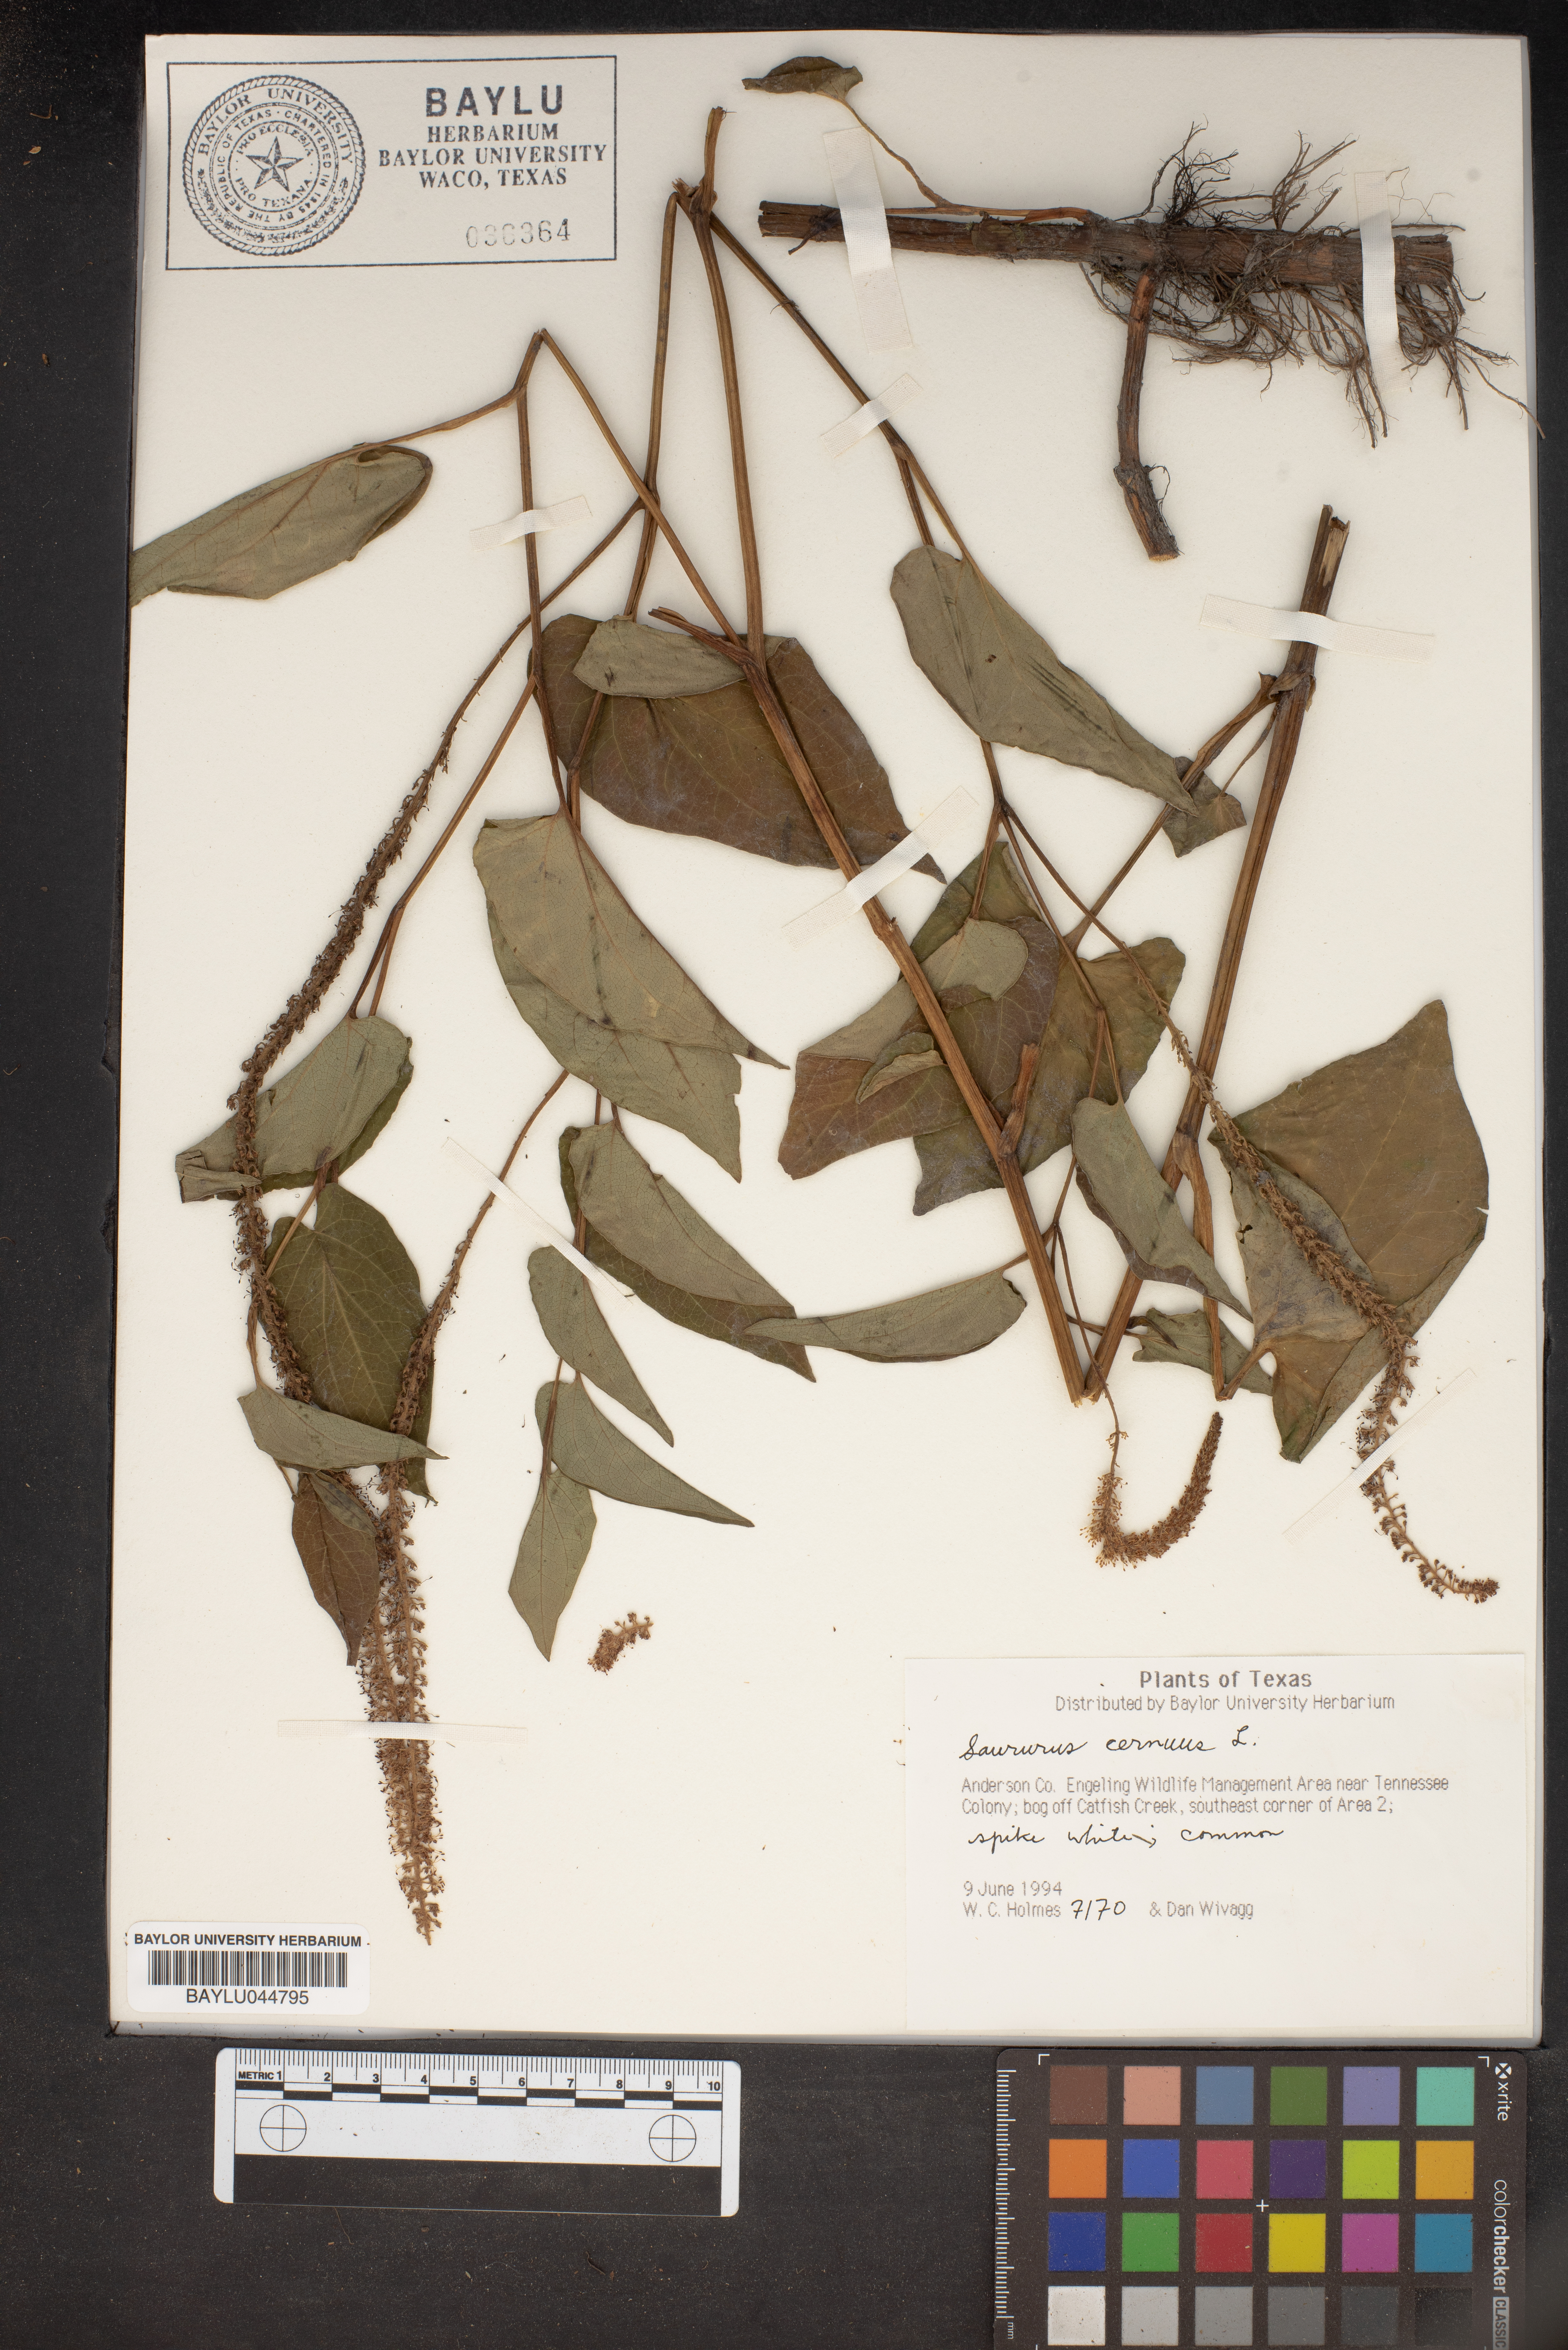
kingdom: Plantae
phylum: Tracheophyta
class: Magnoliopsida
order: Piperales
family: Saururaceae
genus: Saururus
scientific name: Saururus cernuus
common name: Lizard's-tail
